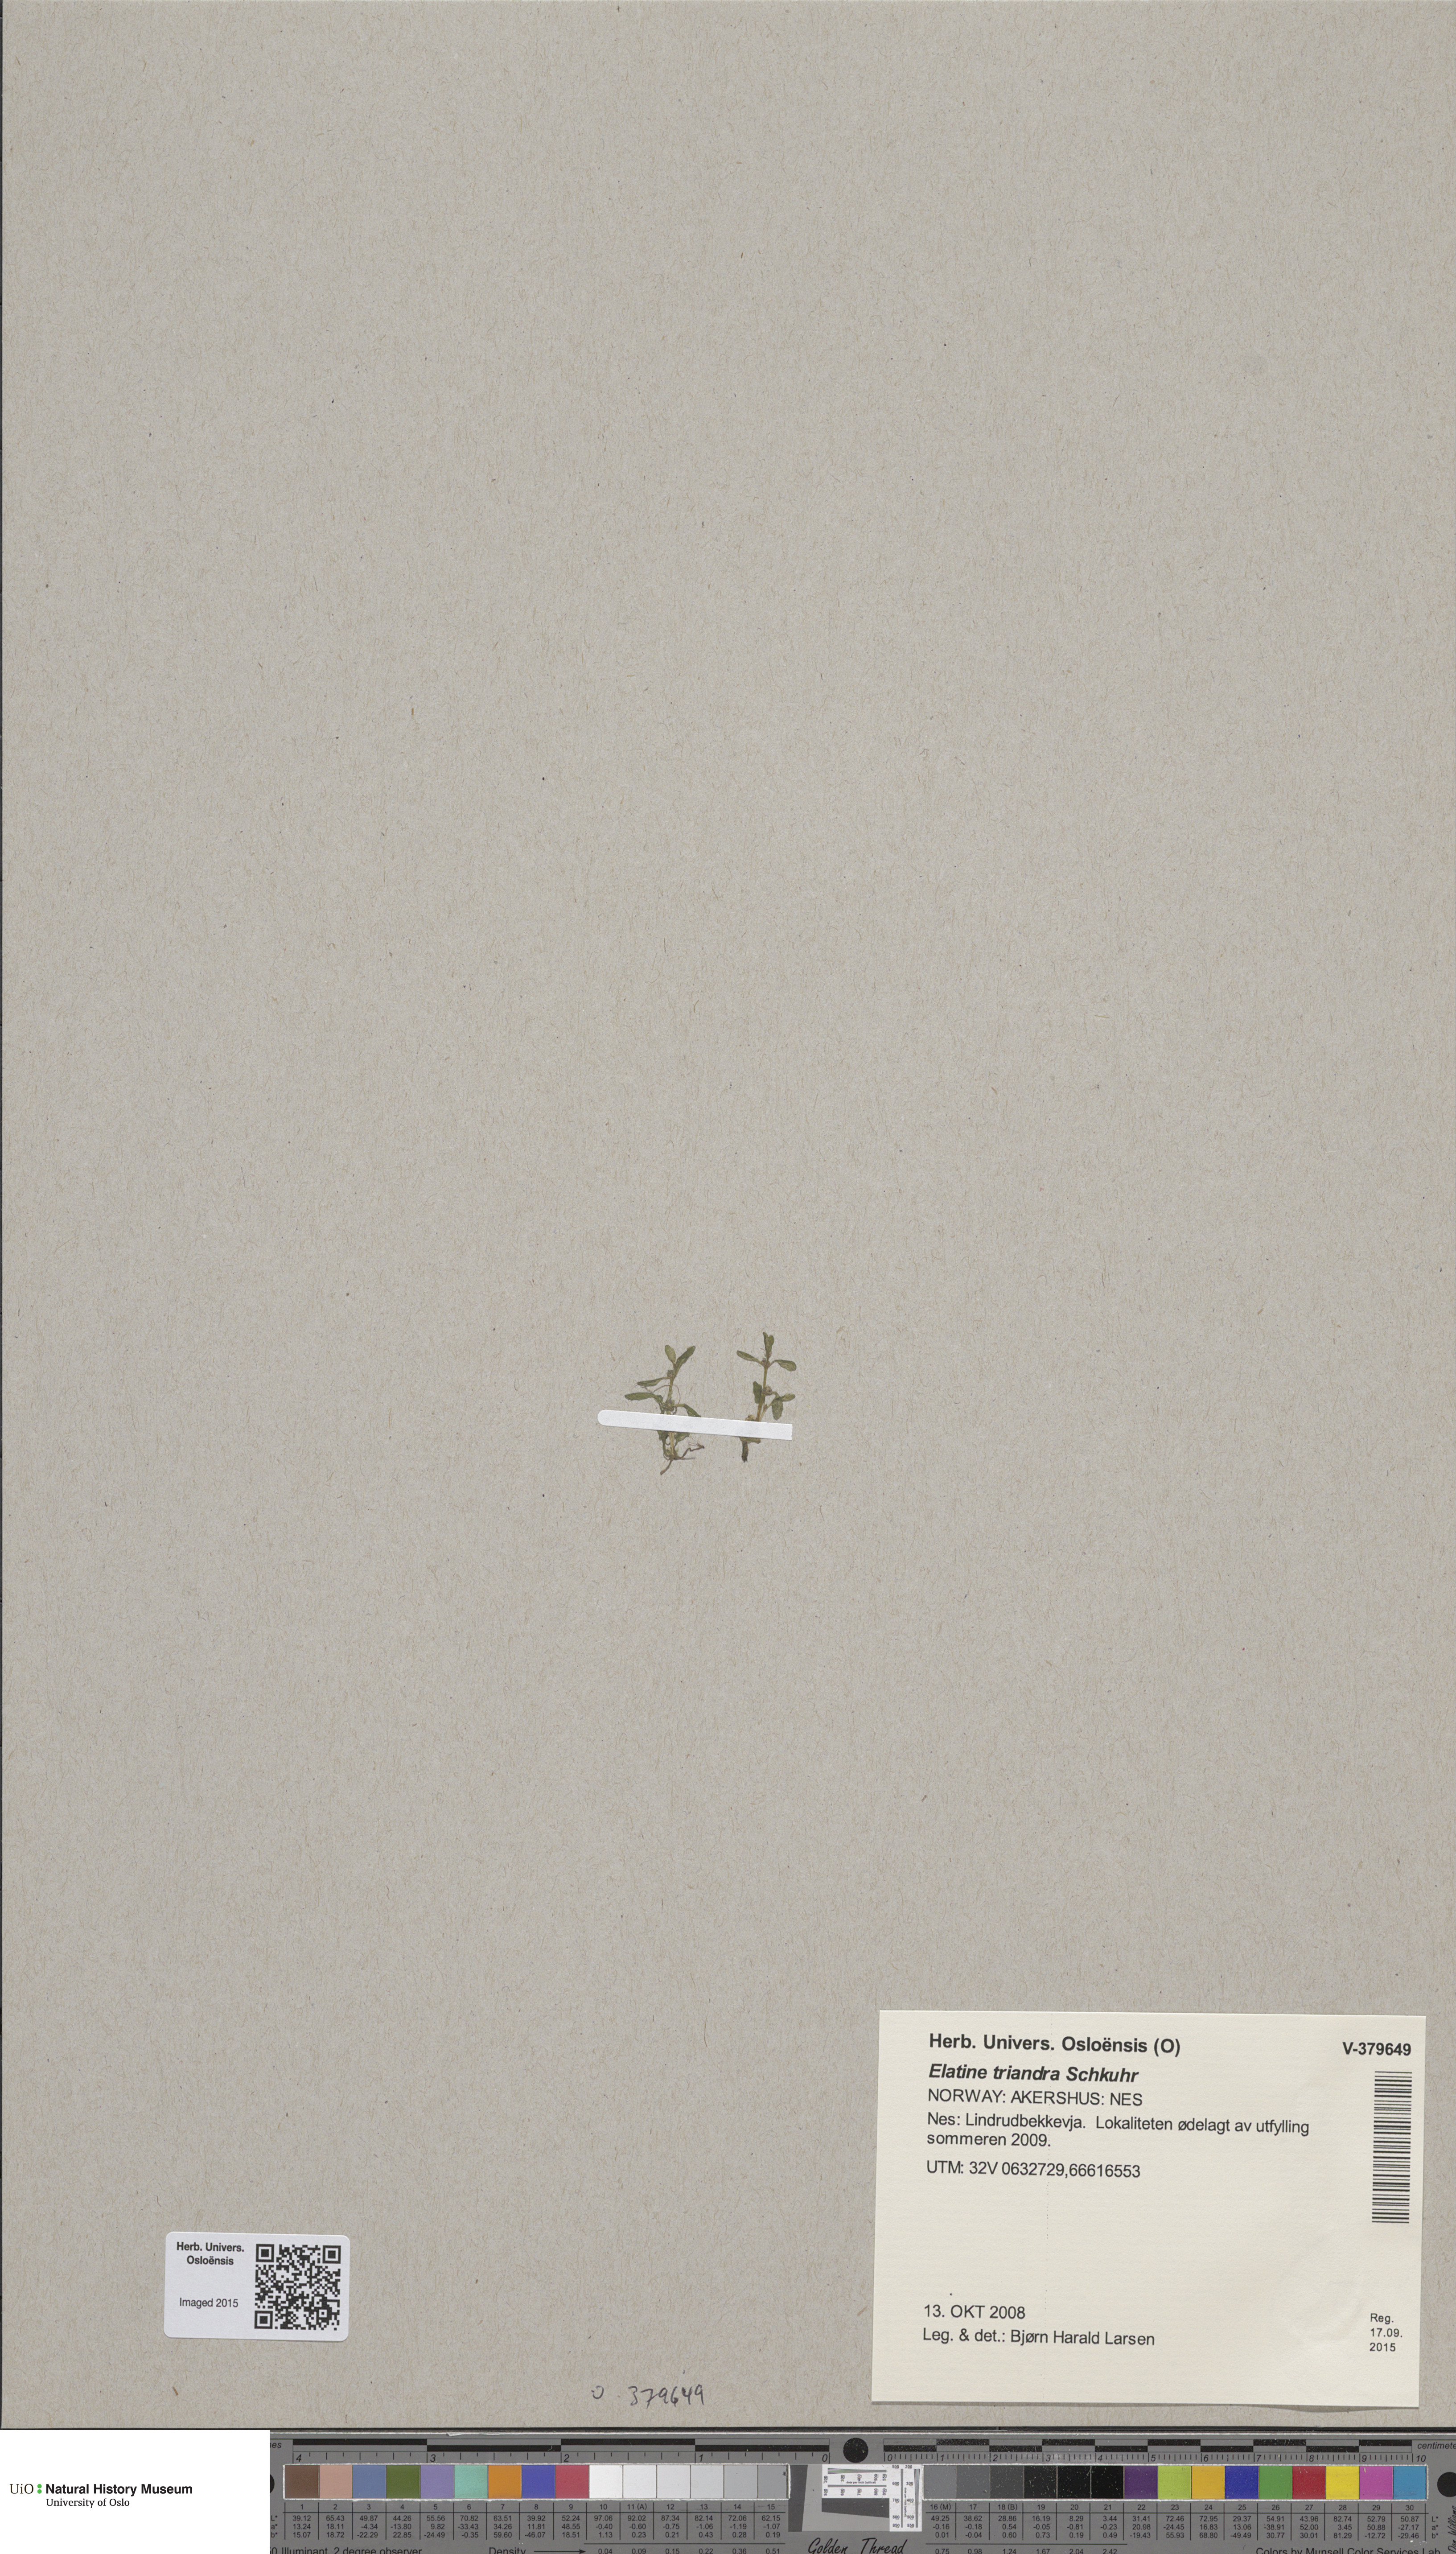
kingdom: Plantae
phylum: Tracheophyta
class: Magnoliopsida
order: Malpighiales
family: Elatinaceae
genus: Elatine
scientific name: Elatine triandra
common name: Three-stamened waterwort
